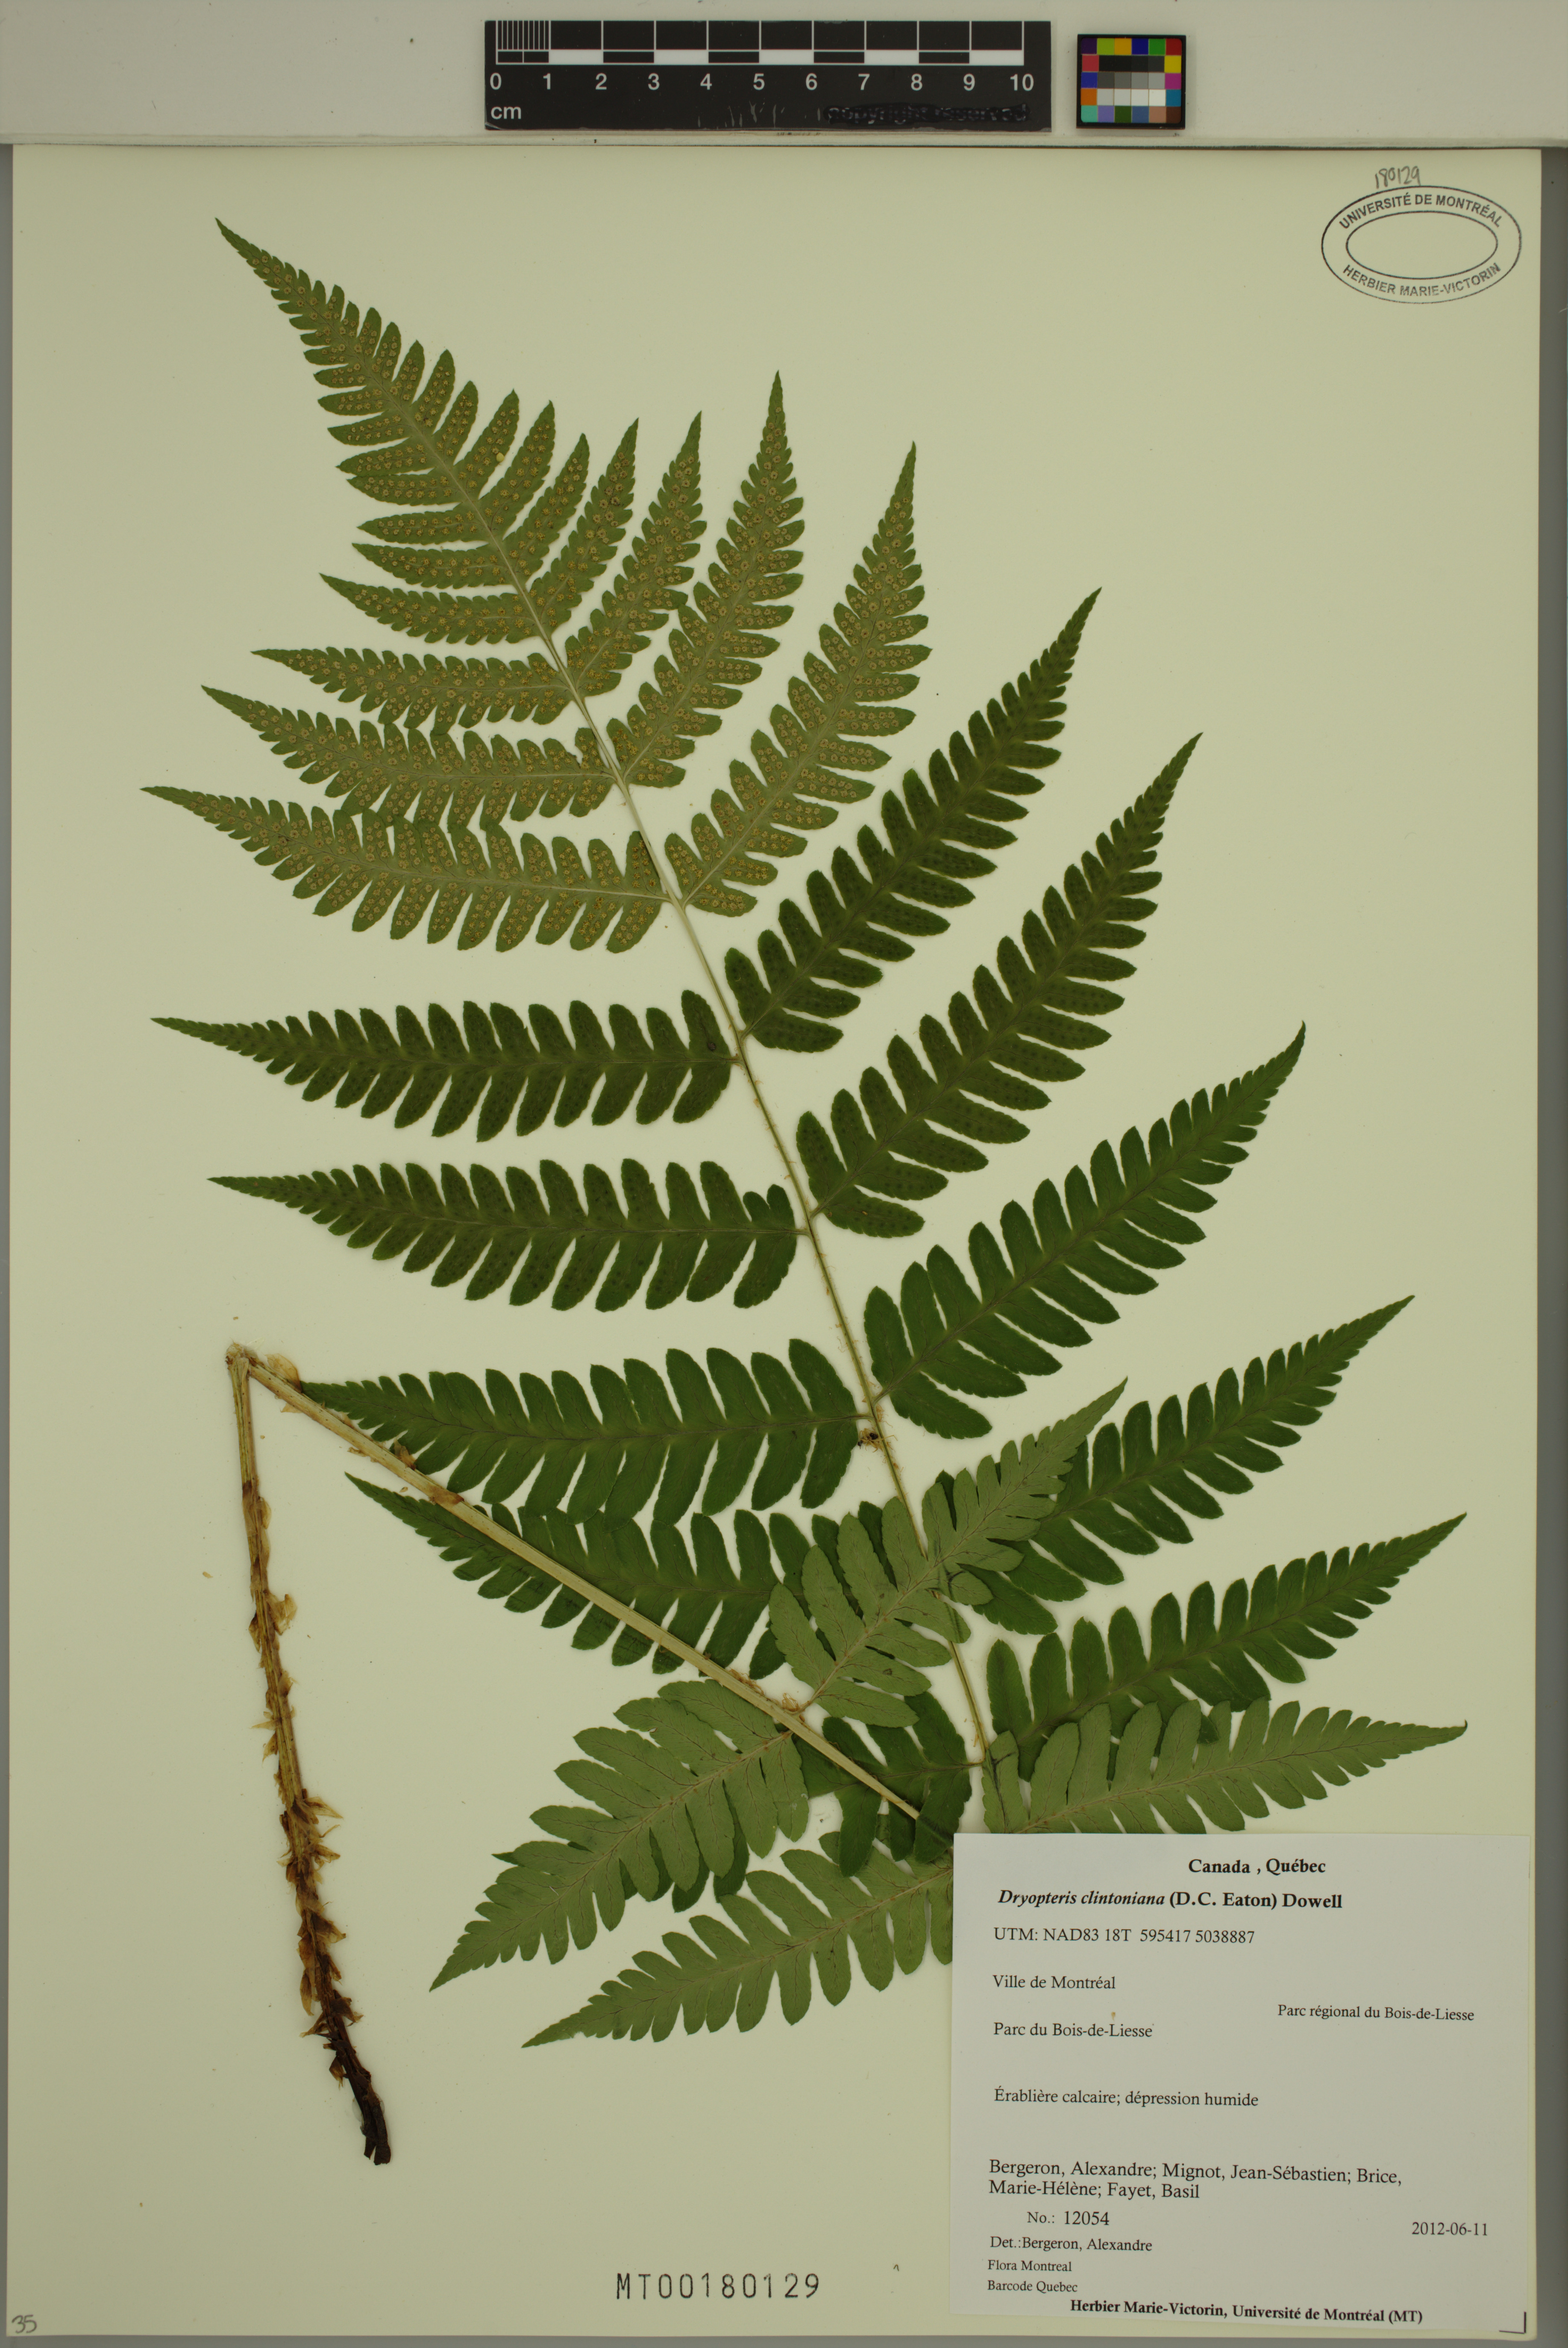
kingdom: Plantae
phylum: Tracheophyta
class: Polypodiopsida
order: Polypodiales
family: Dryopteridaceae
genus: Dryopteris
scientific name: Dryopteris clintoniana
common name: Clinton's wood fern
